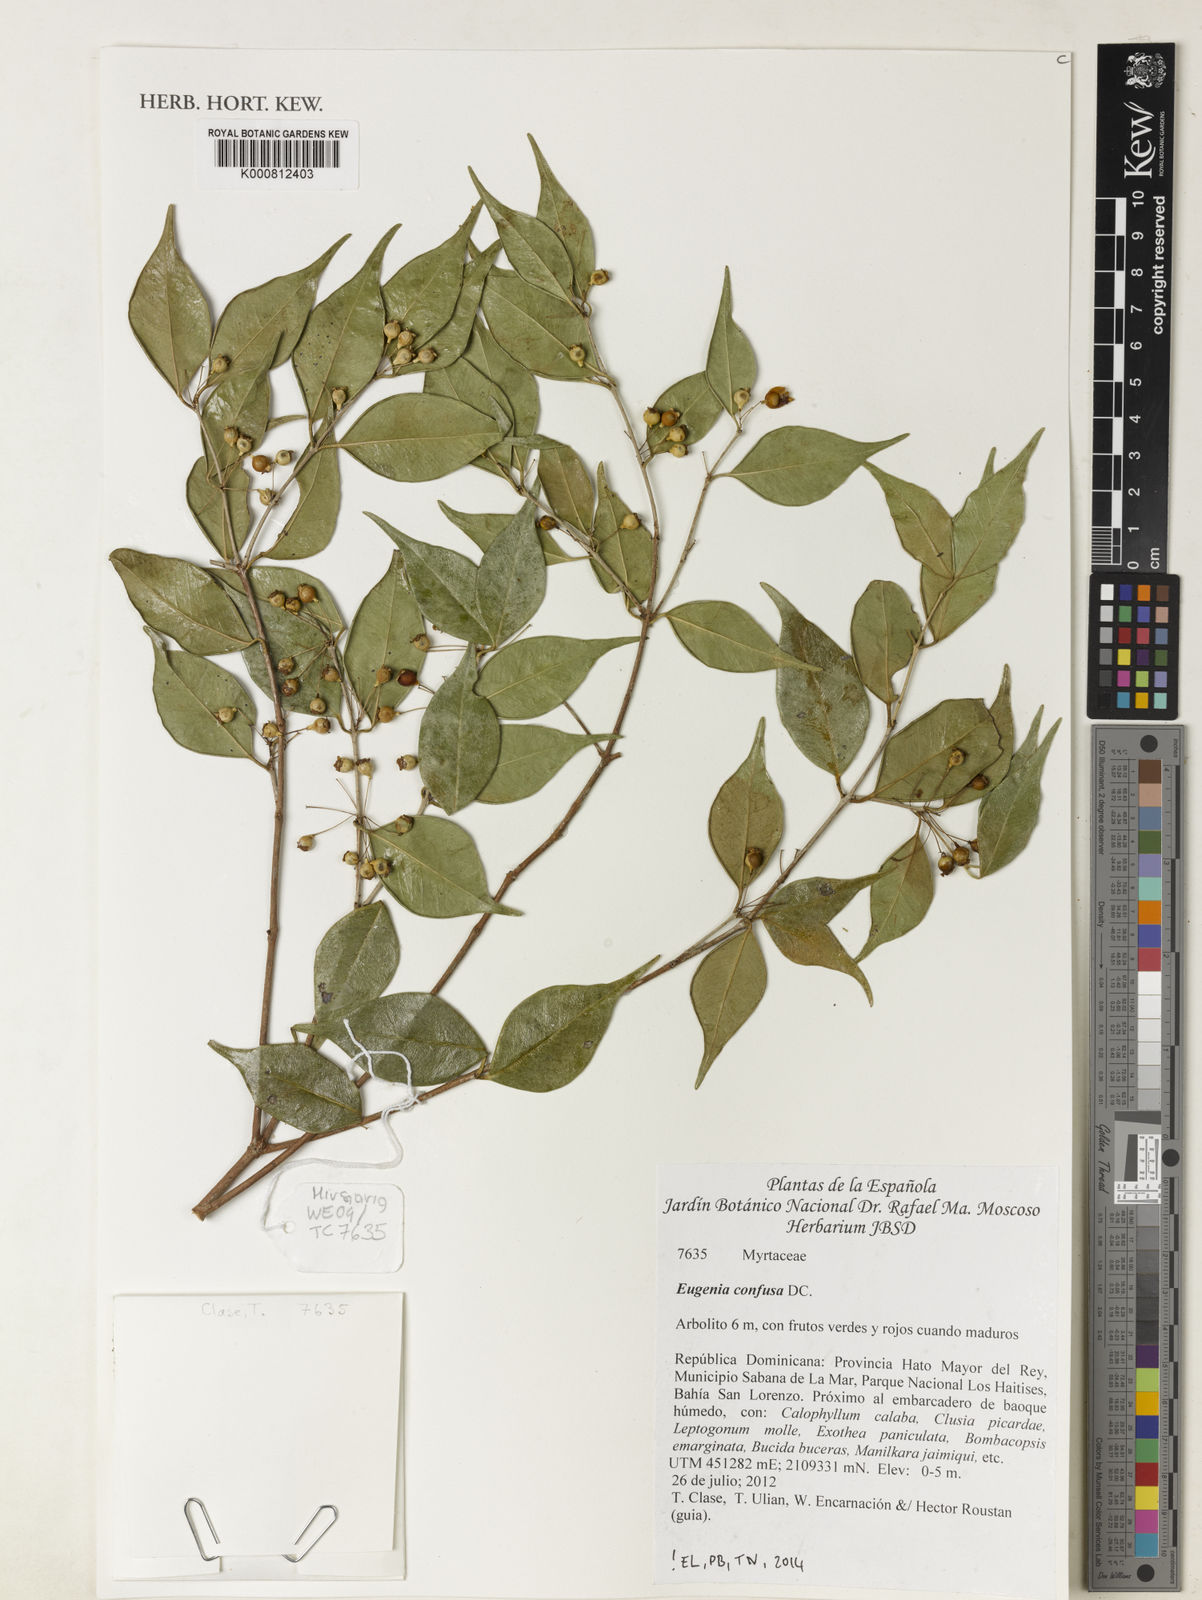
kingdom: Plantae
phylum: Tracheophyta
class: Magnoliopsida
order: Myrtales
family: Myrtaceae
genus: Eugenia
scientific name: Eugenia confusa
